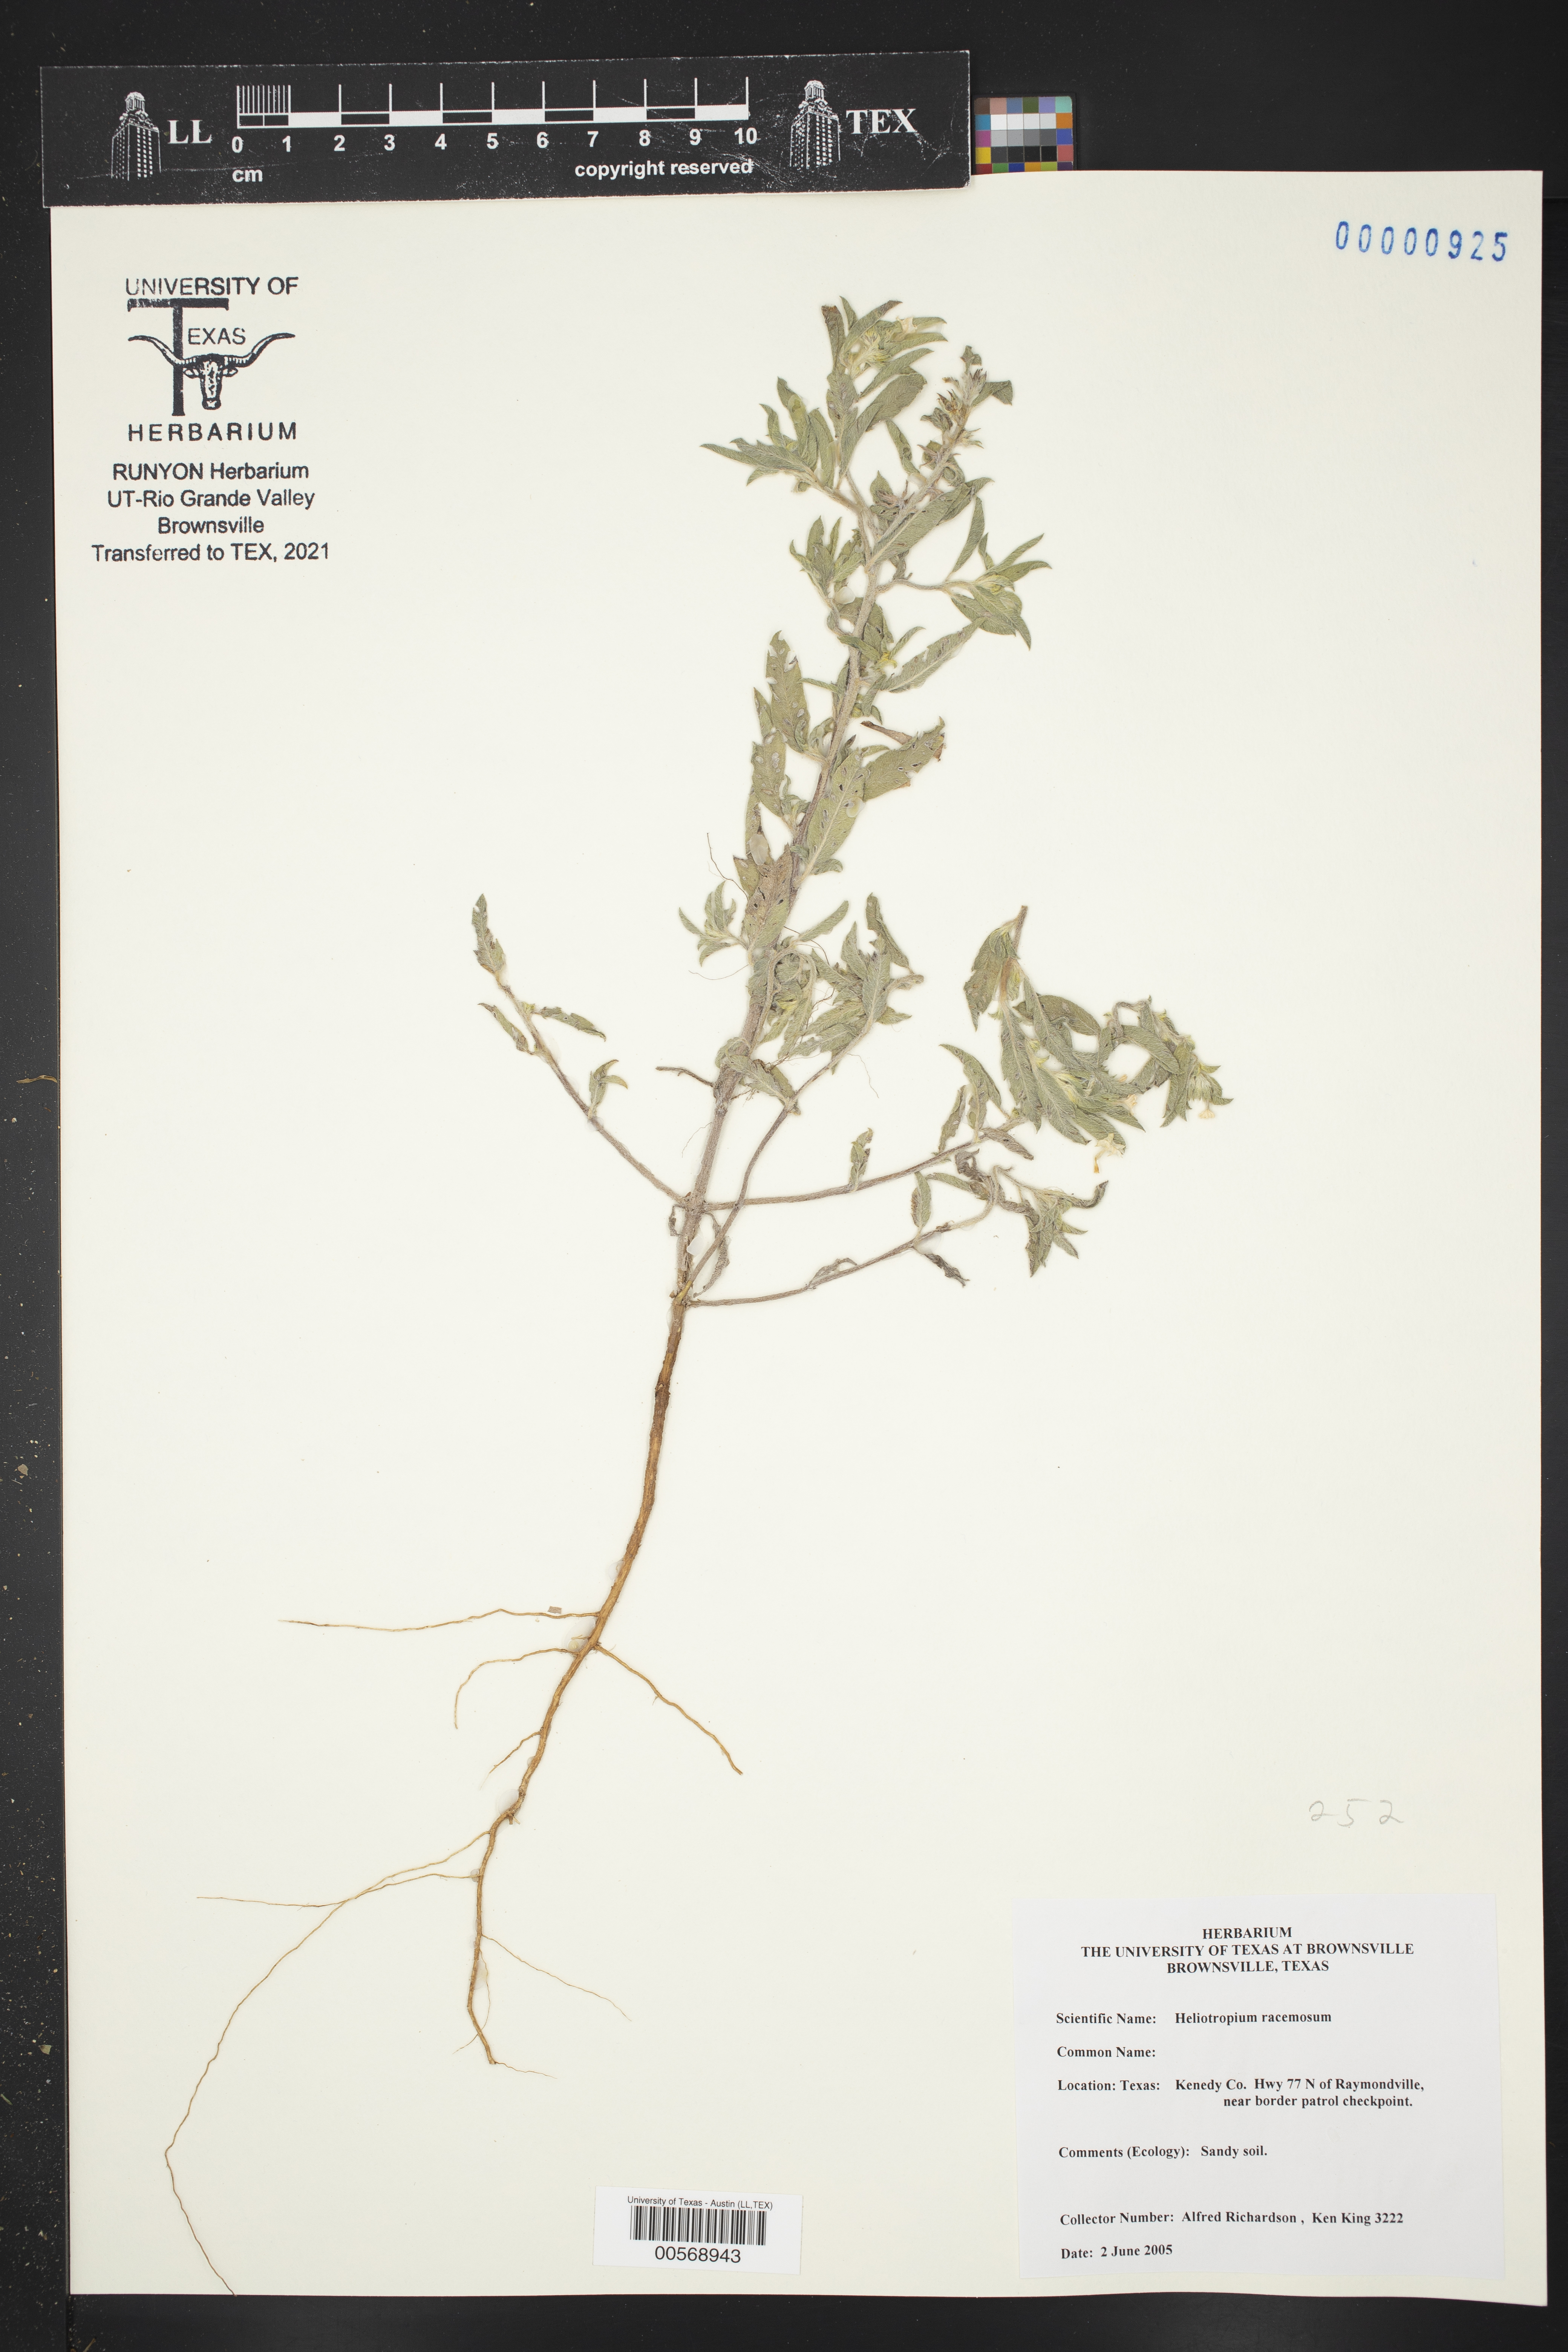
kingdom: Plantae
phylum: Tracheophyta
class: Magnoliopsida
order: Boraginales
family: Heliotropiaceae
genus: Heliotropium
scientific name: Heliotropium racemosum
